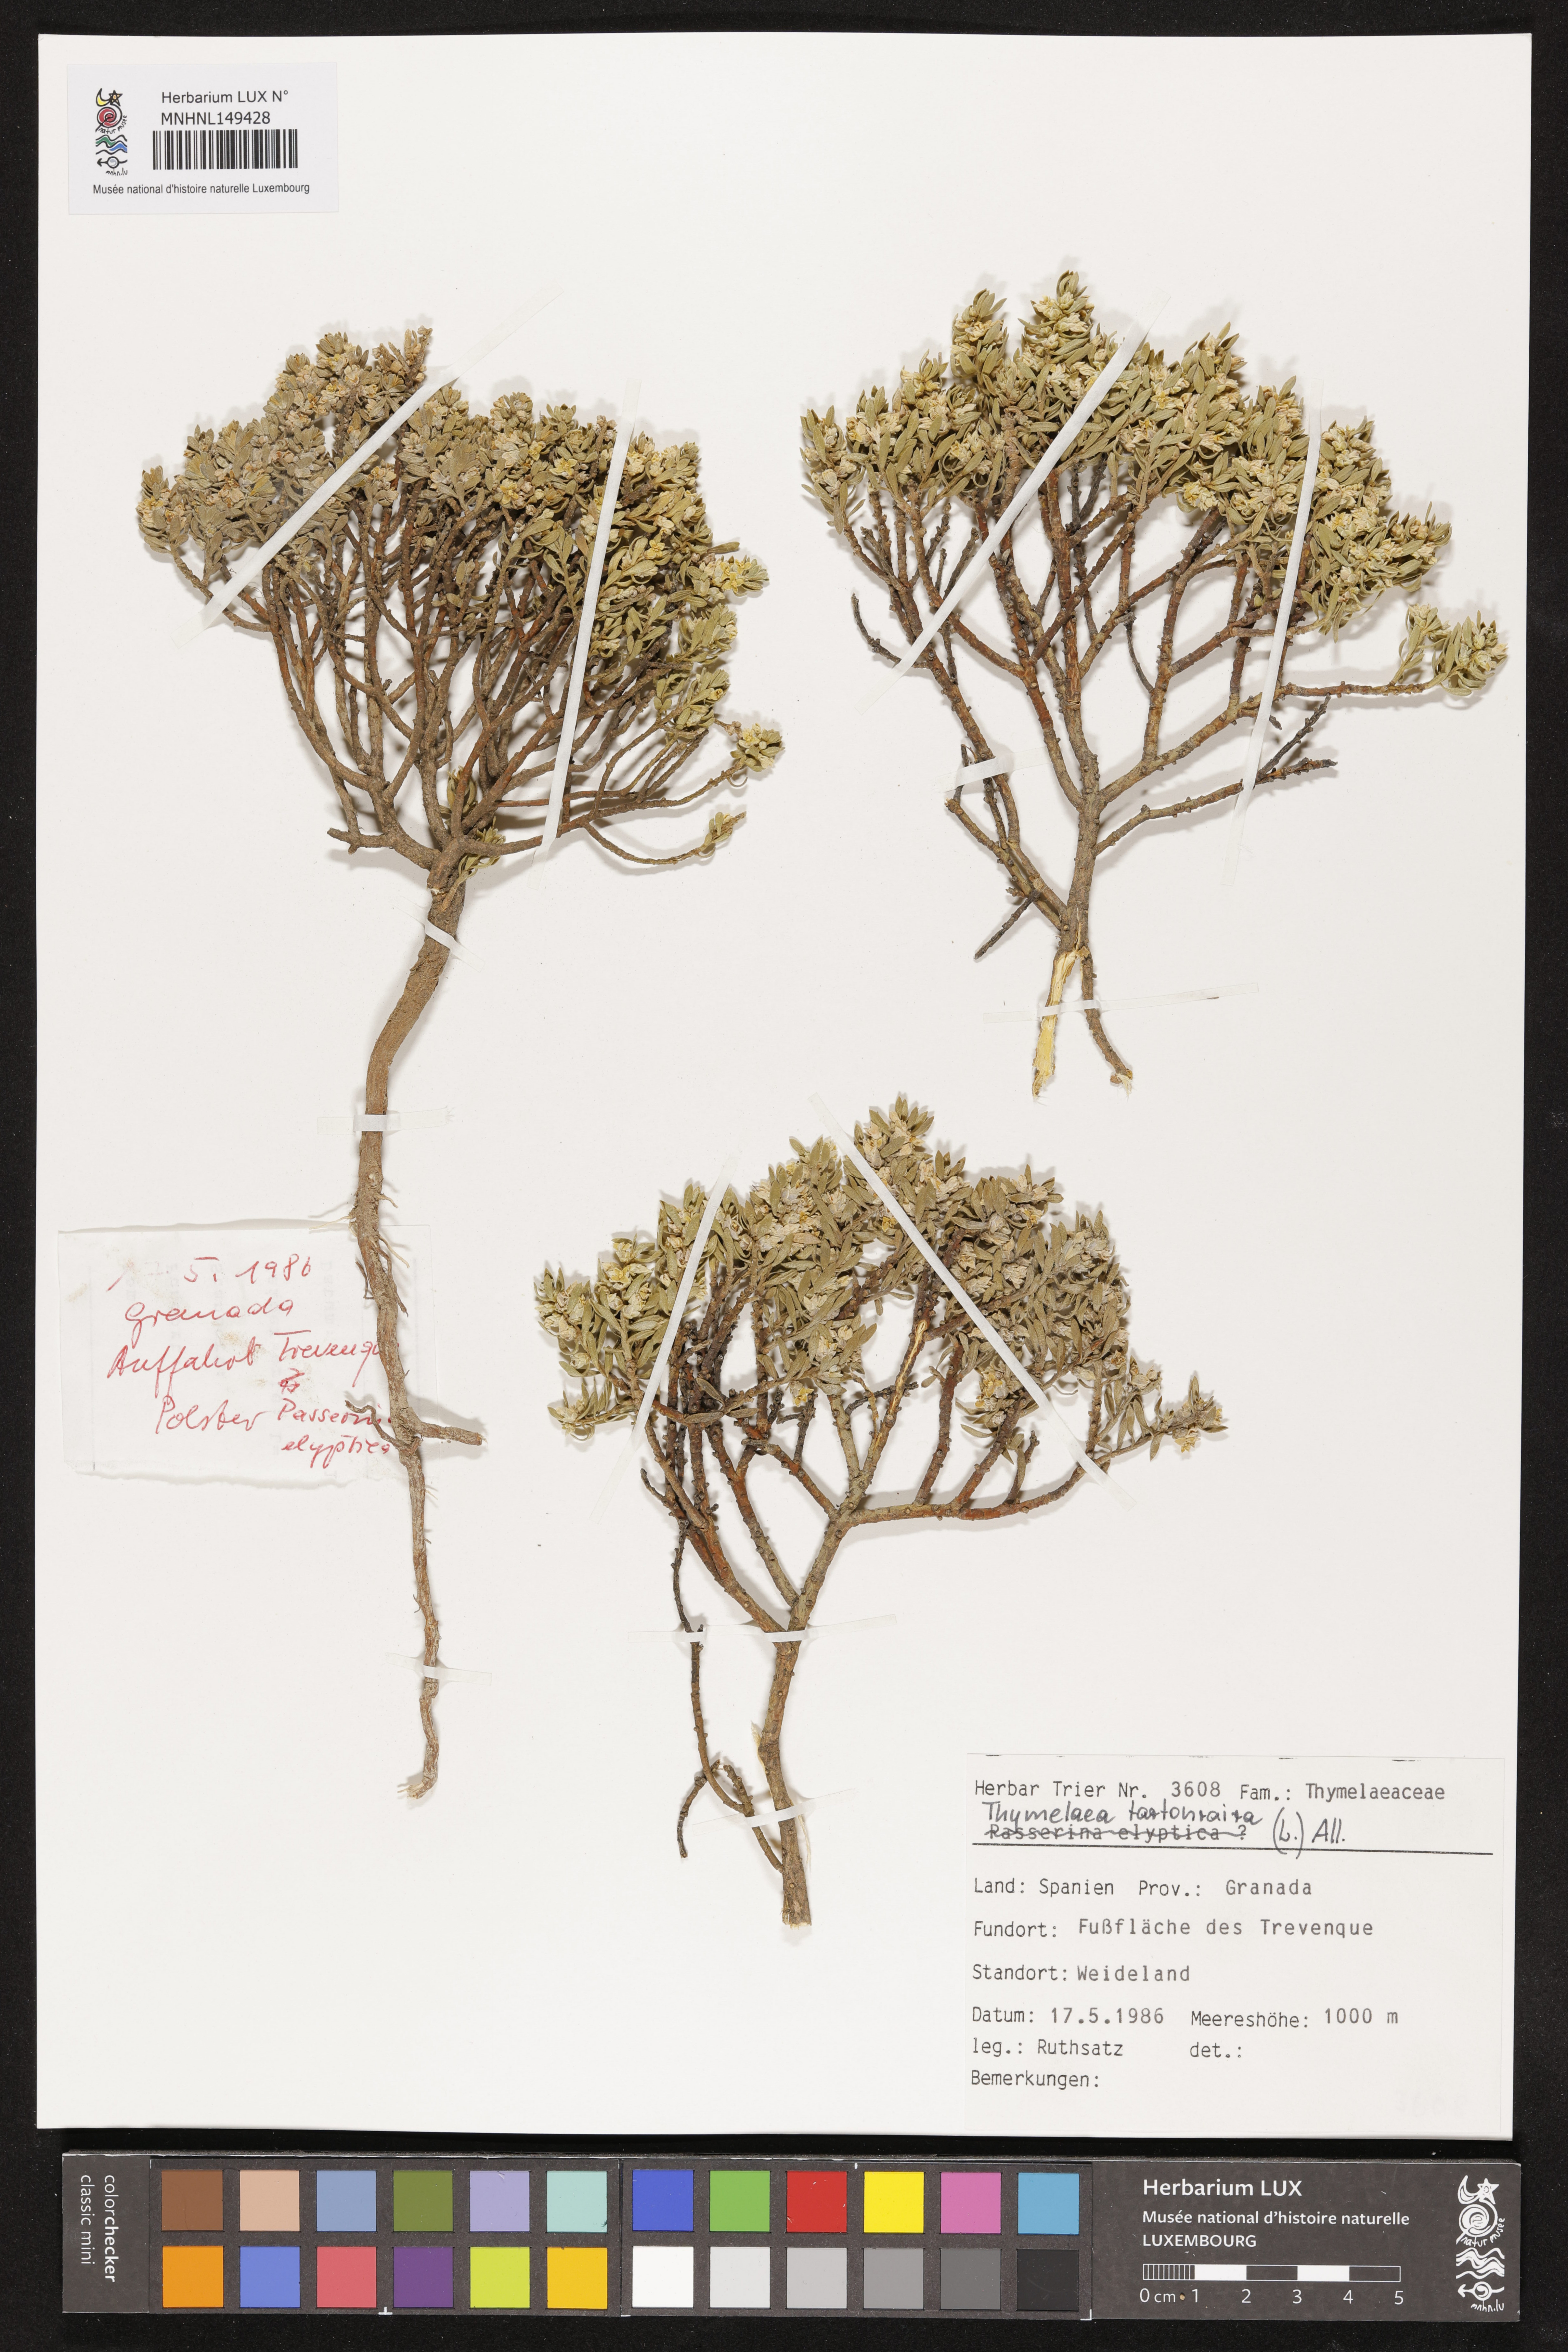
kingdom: Plantae
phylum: Tracheophyta
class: Magnoliopsida
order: Malvales
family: Thymelaeaceae
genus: Thymelaea
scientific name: Thymelaea tartonraira
